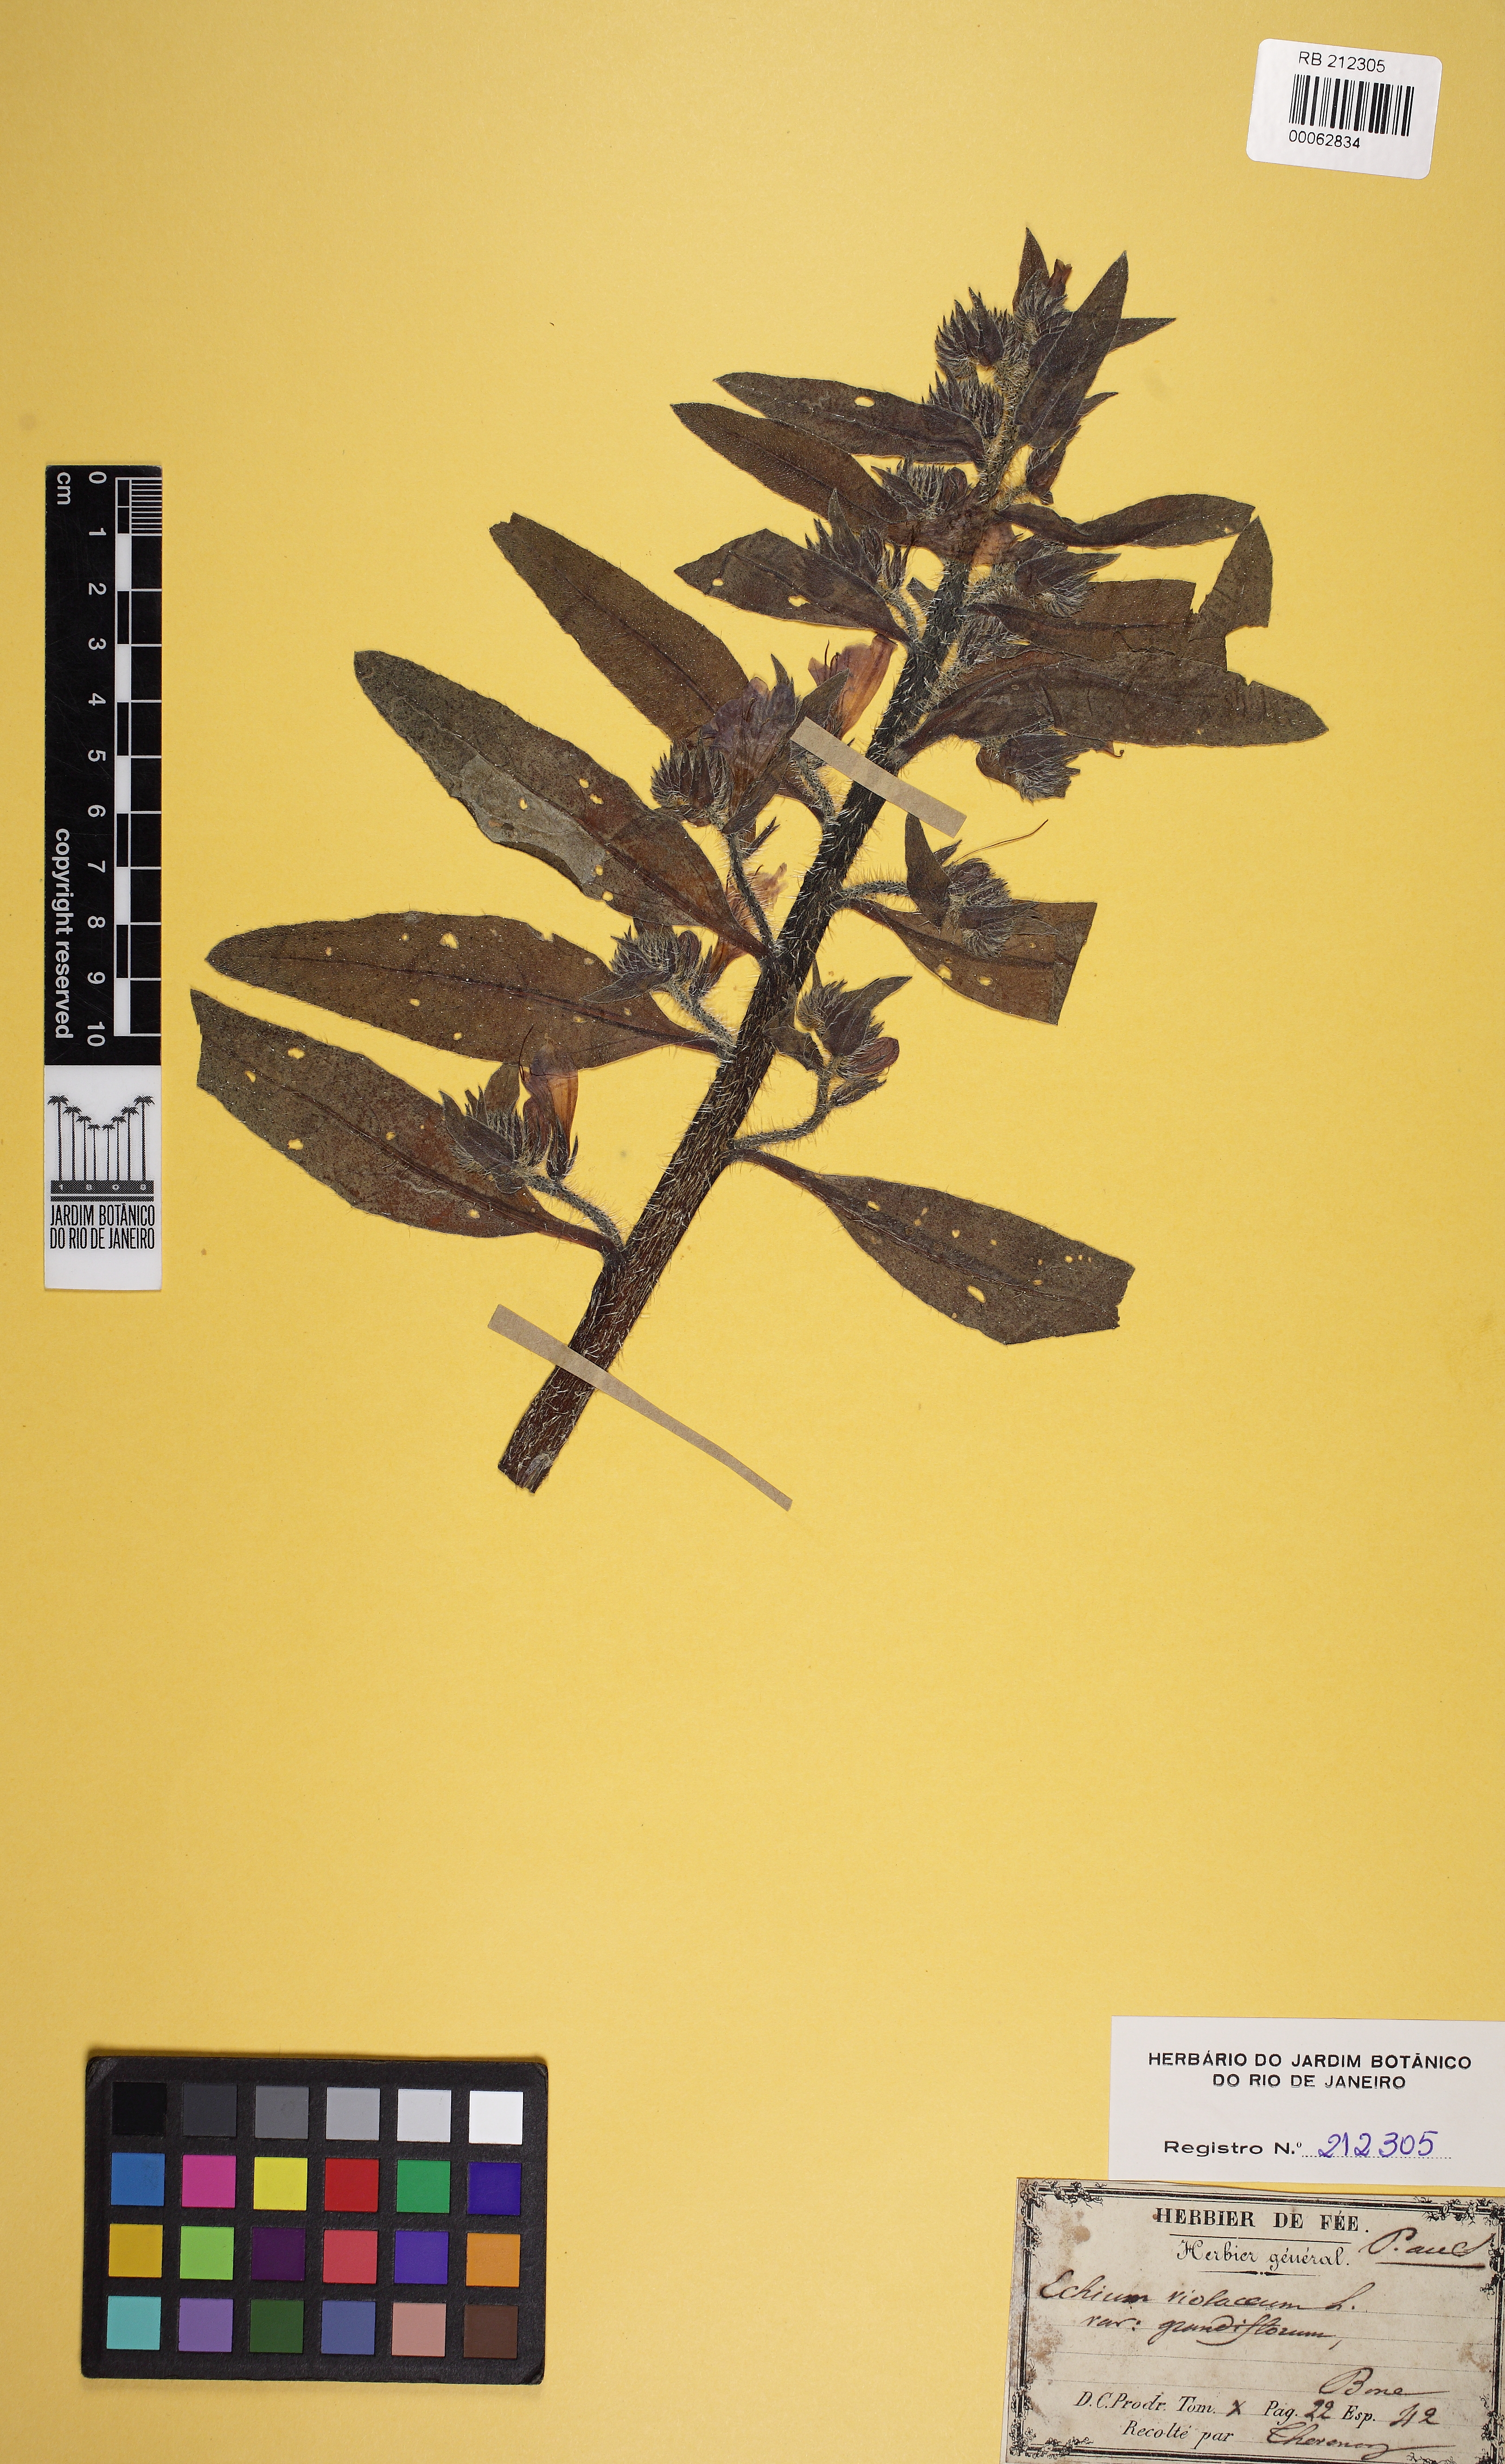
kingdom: Plantae
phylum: Tracheophyta
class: Magnoliopsida
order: Boraginales
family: Boraginaceae
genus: Echium
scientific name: Echium plantagineum
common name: Purple viper's-bugloss
